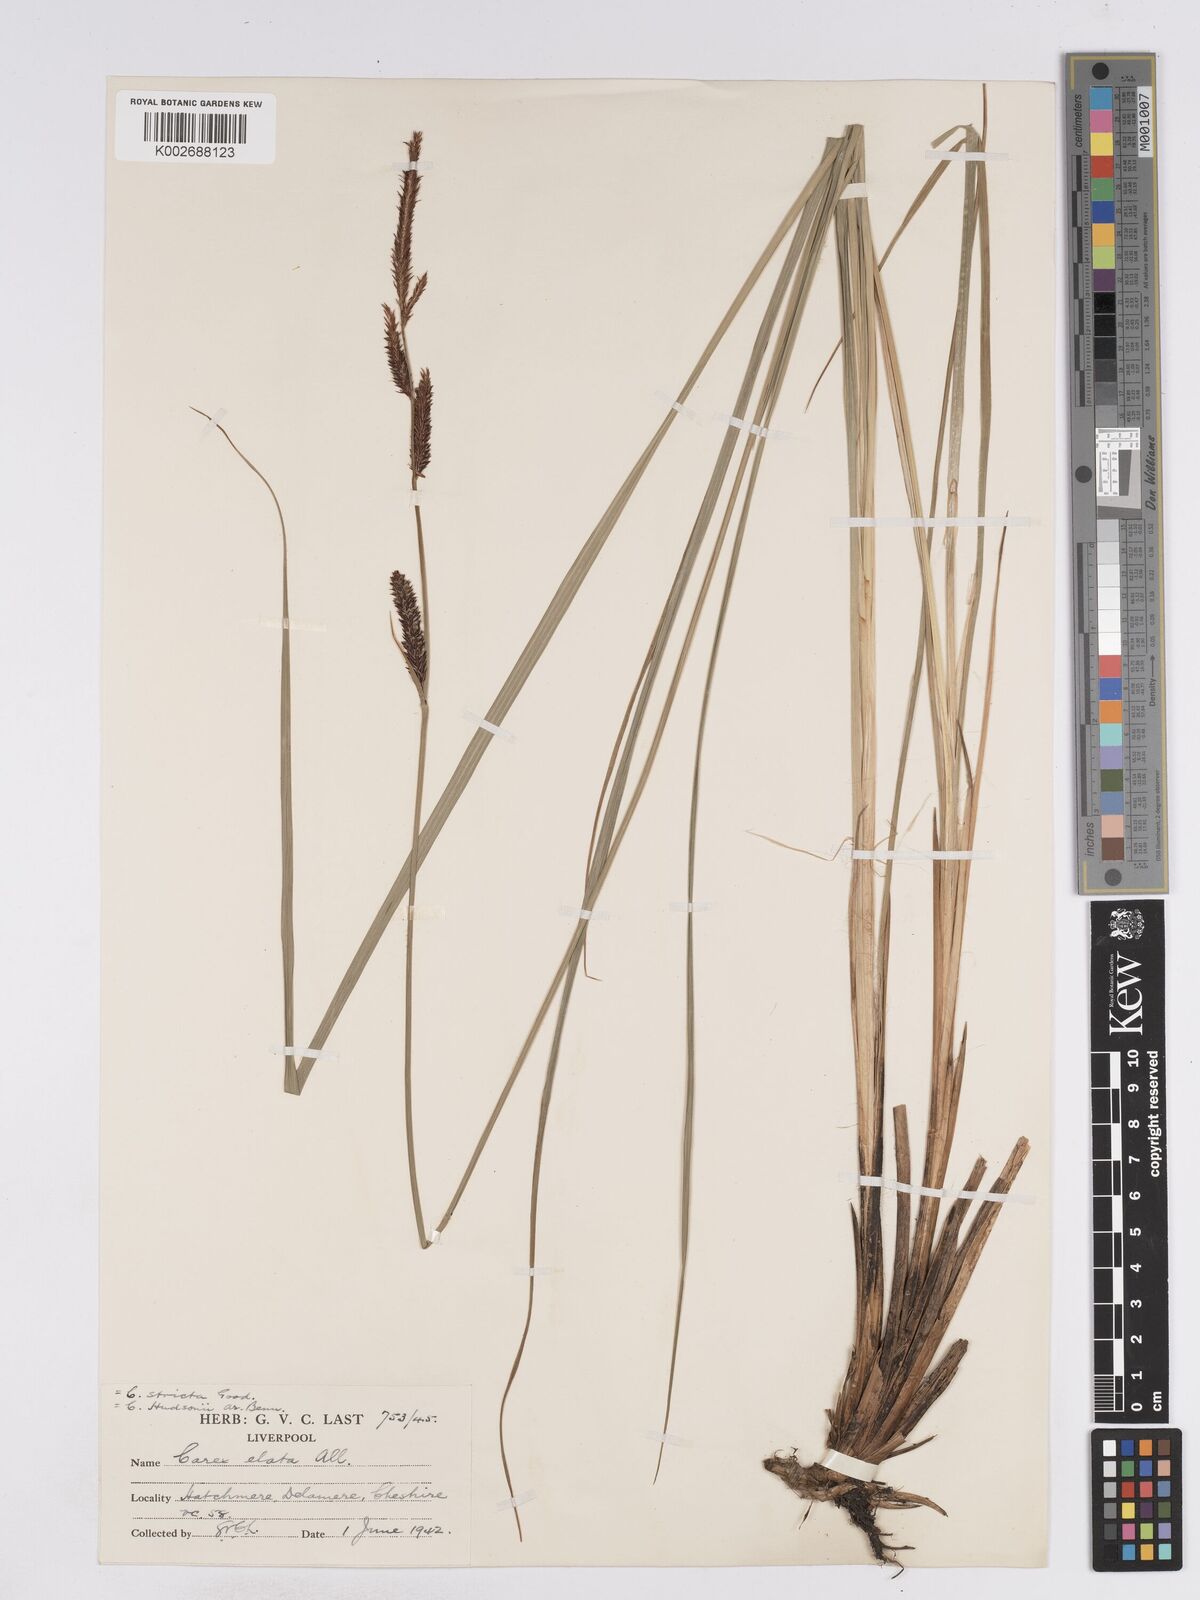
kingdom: Plantae
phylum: Tracheophyta
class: Liliopsida
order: Poales
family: Cyperaceae
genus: Carex
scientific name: Carex elata
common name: Tufted sedge
